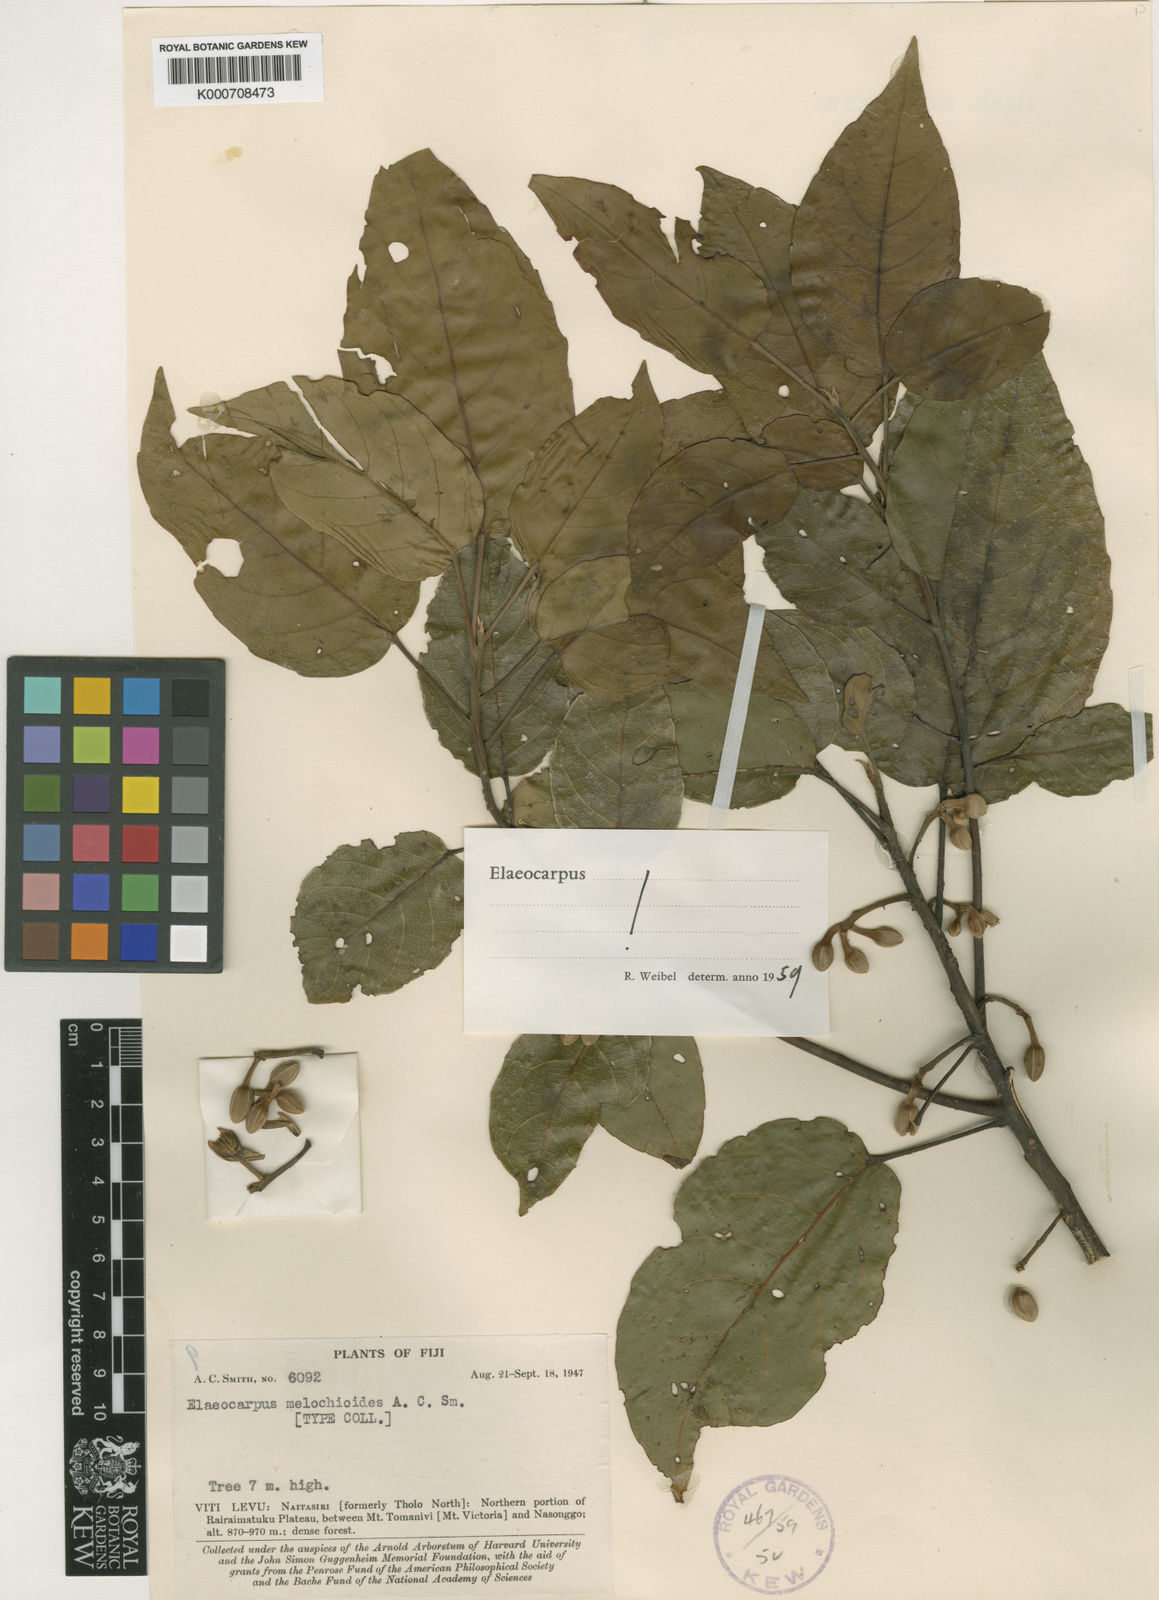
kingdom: Plantae
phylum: Tracheophyta
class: Magnoliopsida
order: Oxalidales
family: Elaeocarpaceae
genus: Elaeocarpus
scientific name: Elaeocarpus melochioides
